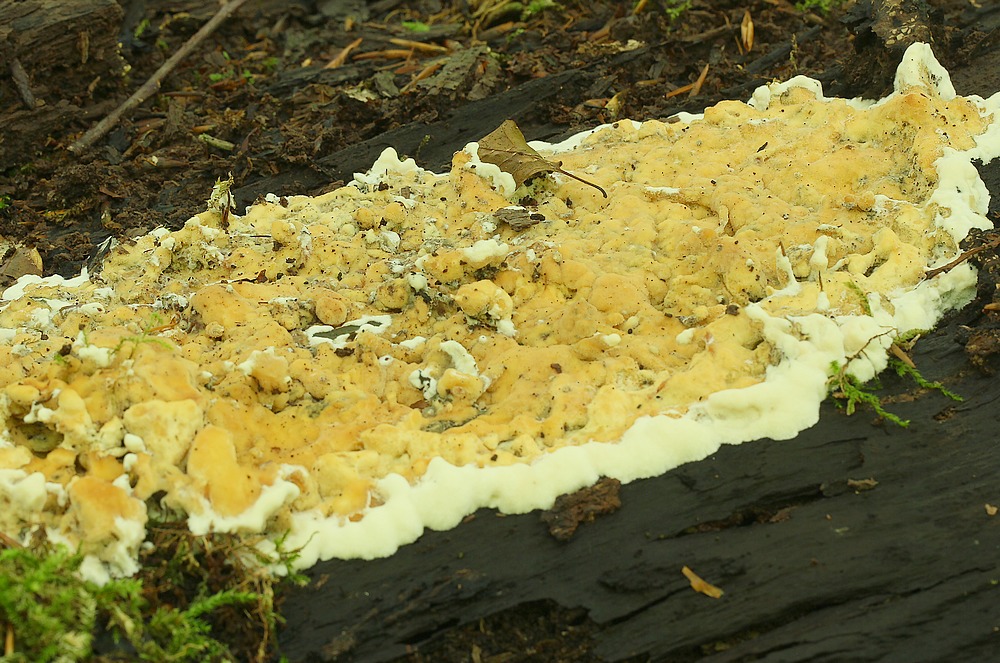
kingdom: Fungi
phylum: Basidiomycota
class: Agaricomycetes
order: Polyporales
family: Steccherinaceae
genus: Antrodiella
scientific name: Antrodiella mentschulensis
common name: abrikosporesvamp
